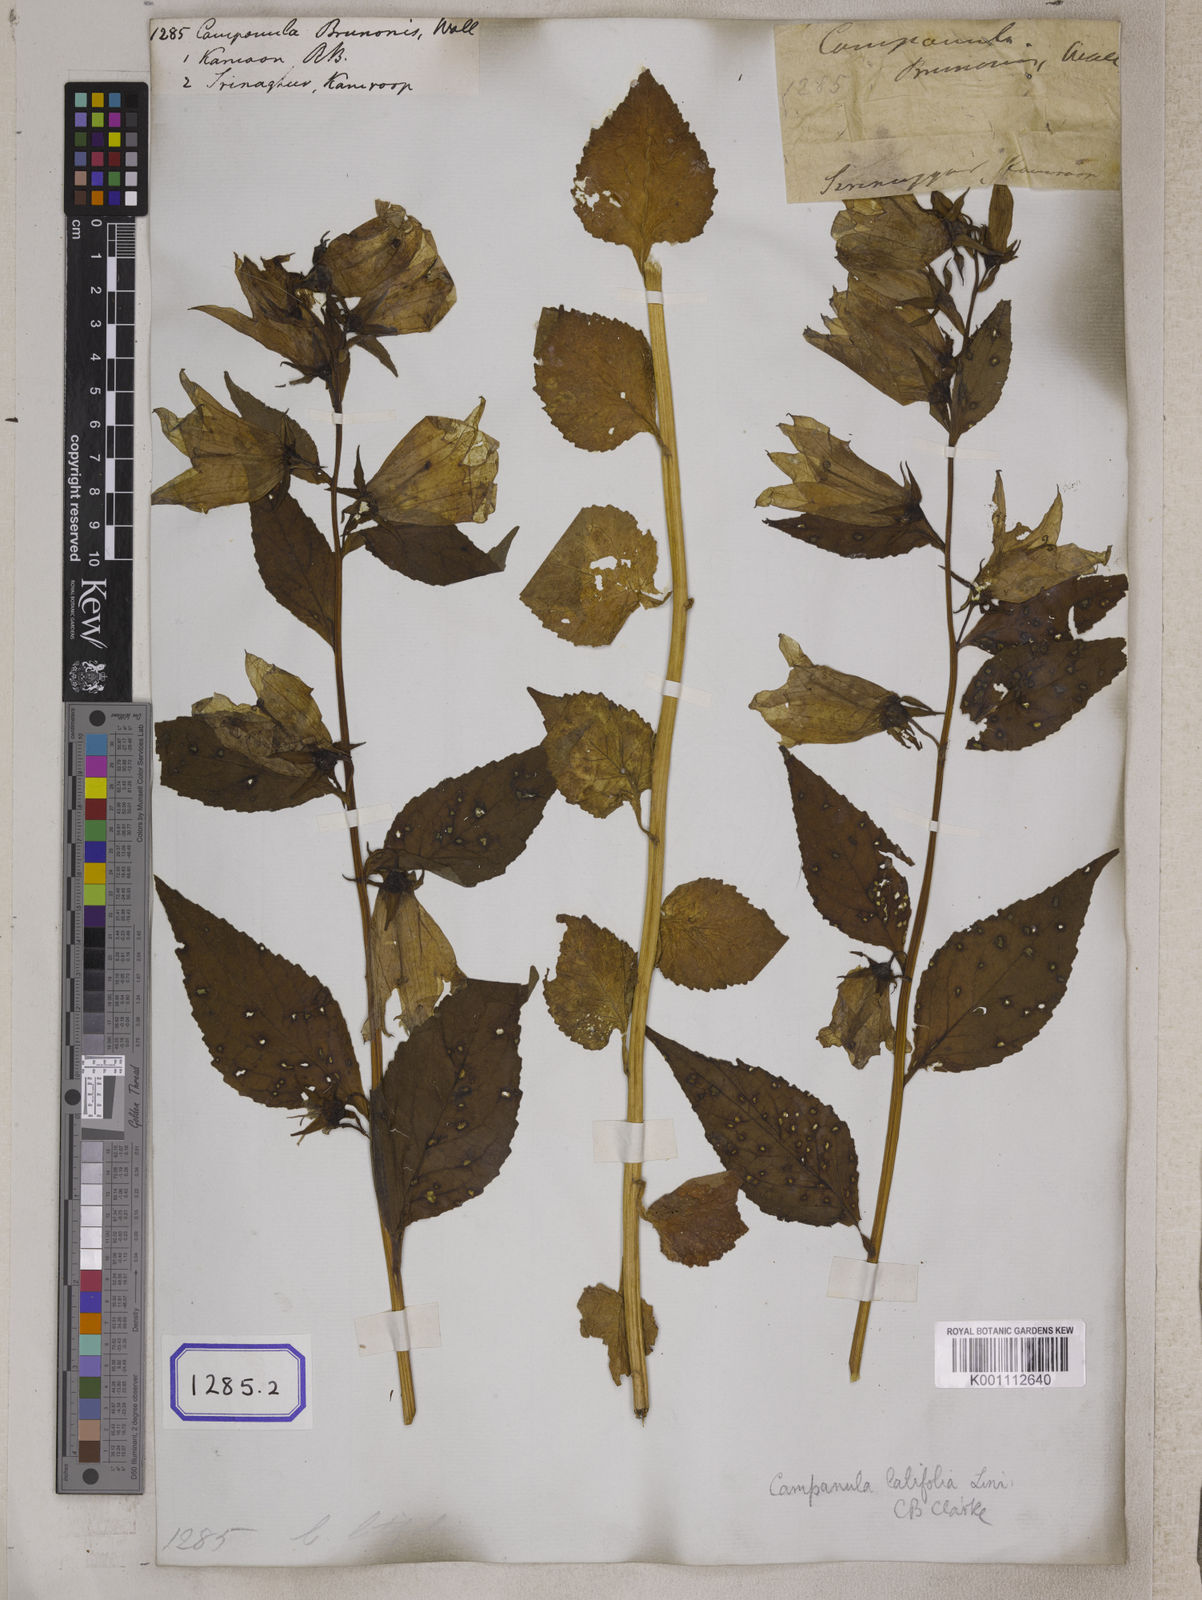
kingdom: Plantae
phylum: Tracheophyta
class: Magnoliopsida
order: Asterales
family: Campanulaceae
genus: Campanula
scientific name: Campanula latifolia
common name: Giant bellflower
